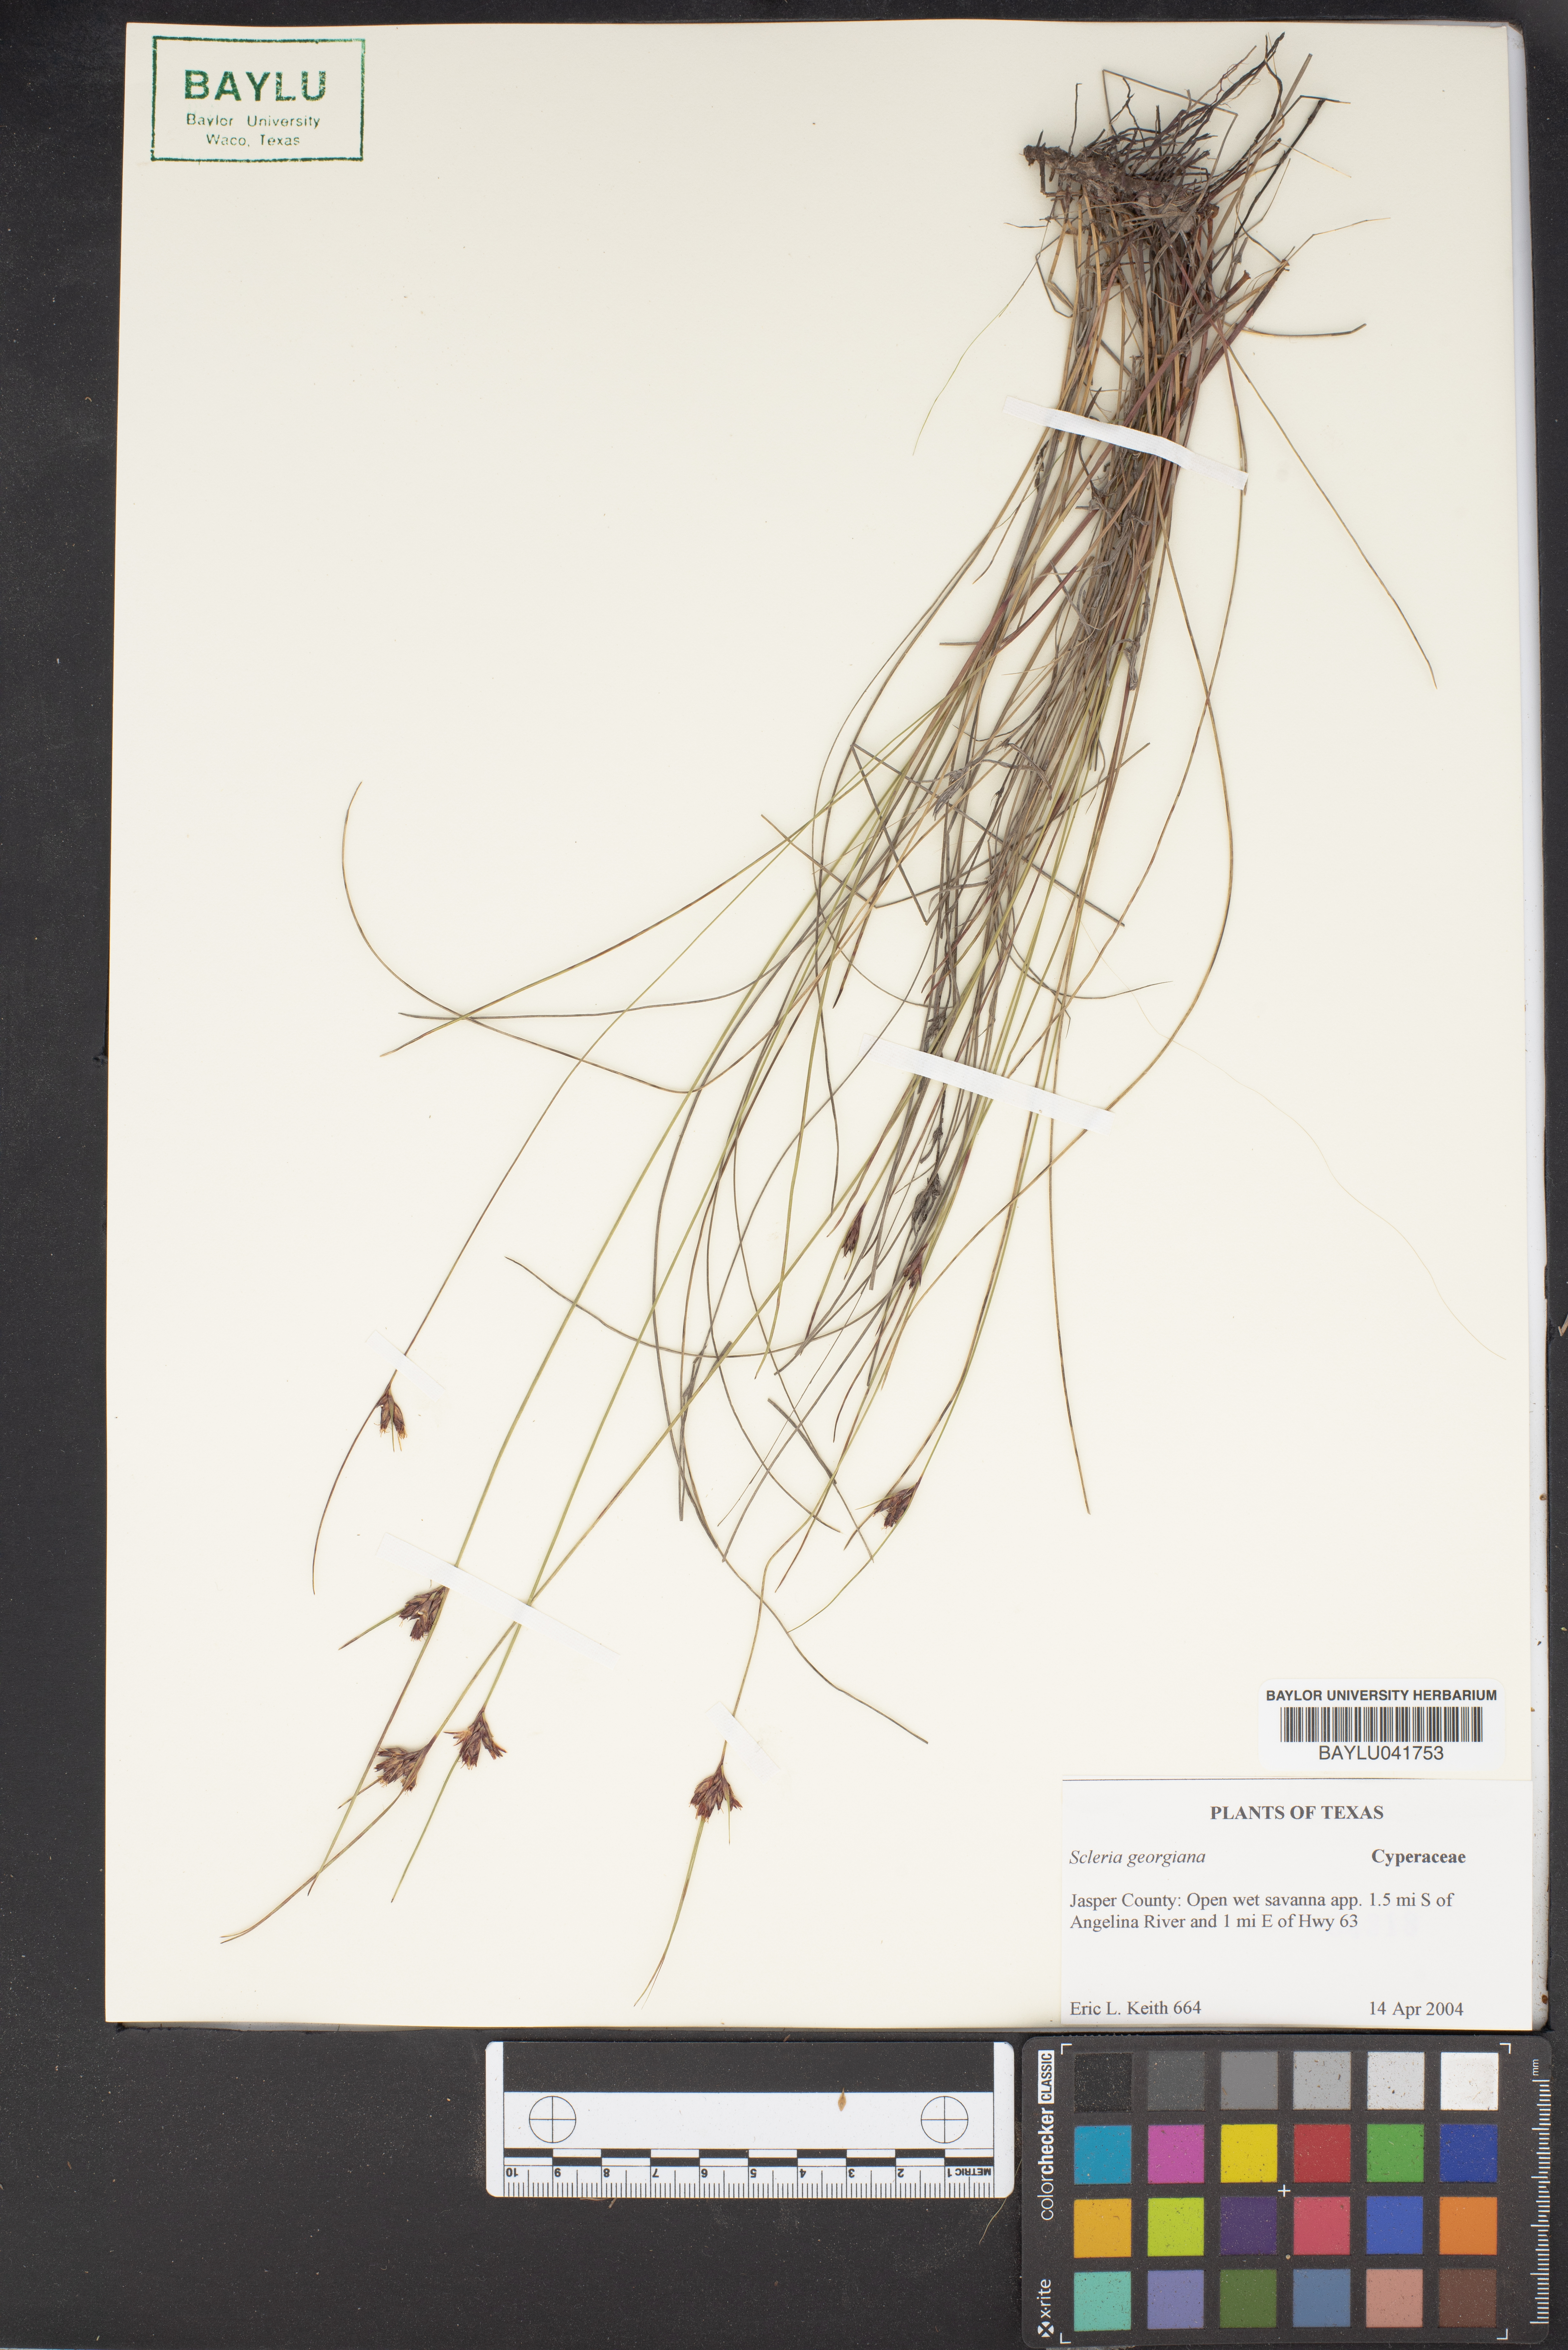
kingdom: Plantae
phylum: Tracheophyta
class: Liliopsida
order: Poales
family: Cyperaceae
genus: Scleria
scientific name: Scleria georgiana
